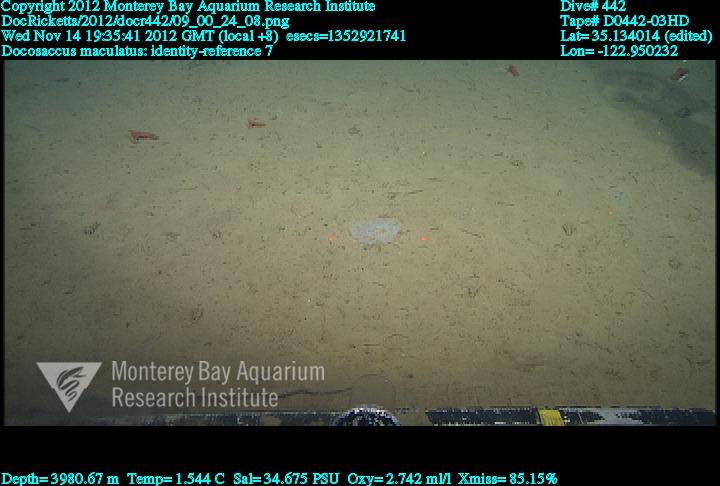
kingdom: Animalia
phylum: Porifera
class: Hexactinellida
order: Lyssacinosida
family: Euplectellidae
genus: Docosaccus
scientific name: Docosaccus maculatus
